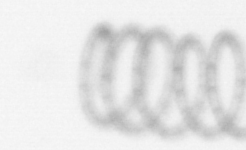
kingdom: Chromista
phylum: Ochrophyta
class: Bacillariophyceae
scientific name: Bacillariophyceae
